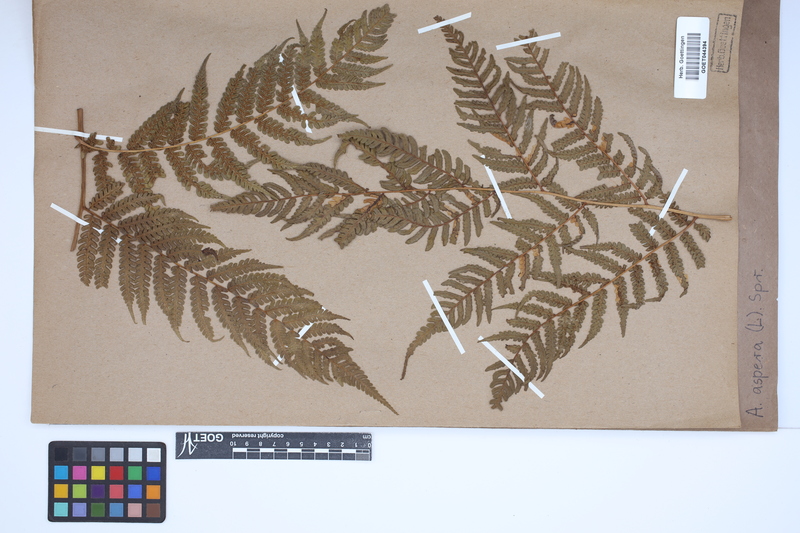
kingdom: Plantae
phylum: Tracheophyta
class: Polypodiopsida
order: Cyatheales
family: Cyatheaceae
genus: Cyathea
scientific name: Cyathea aspera
